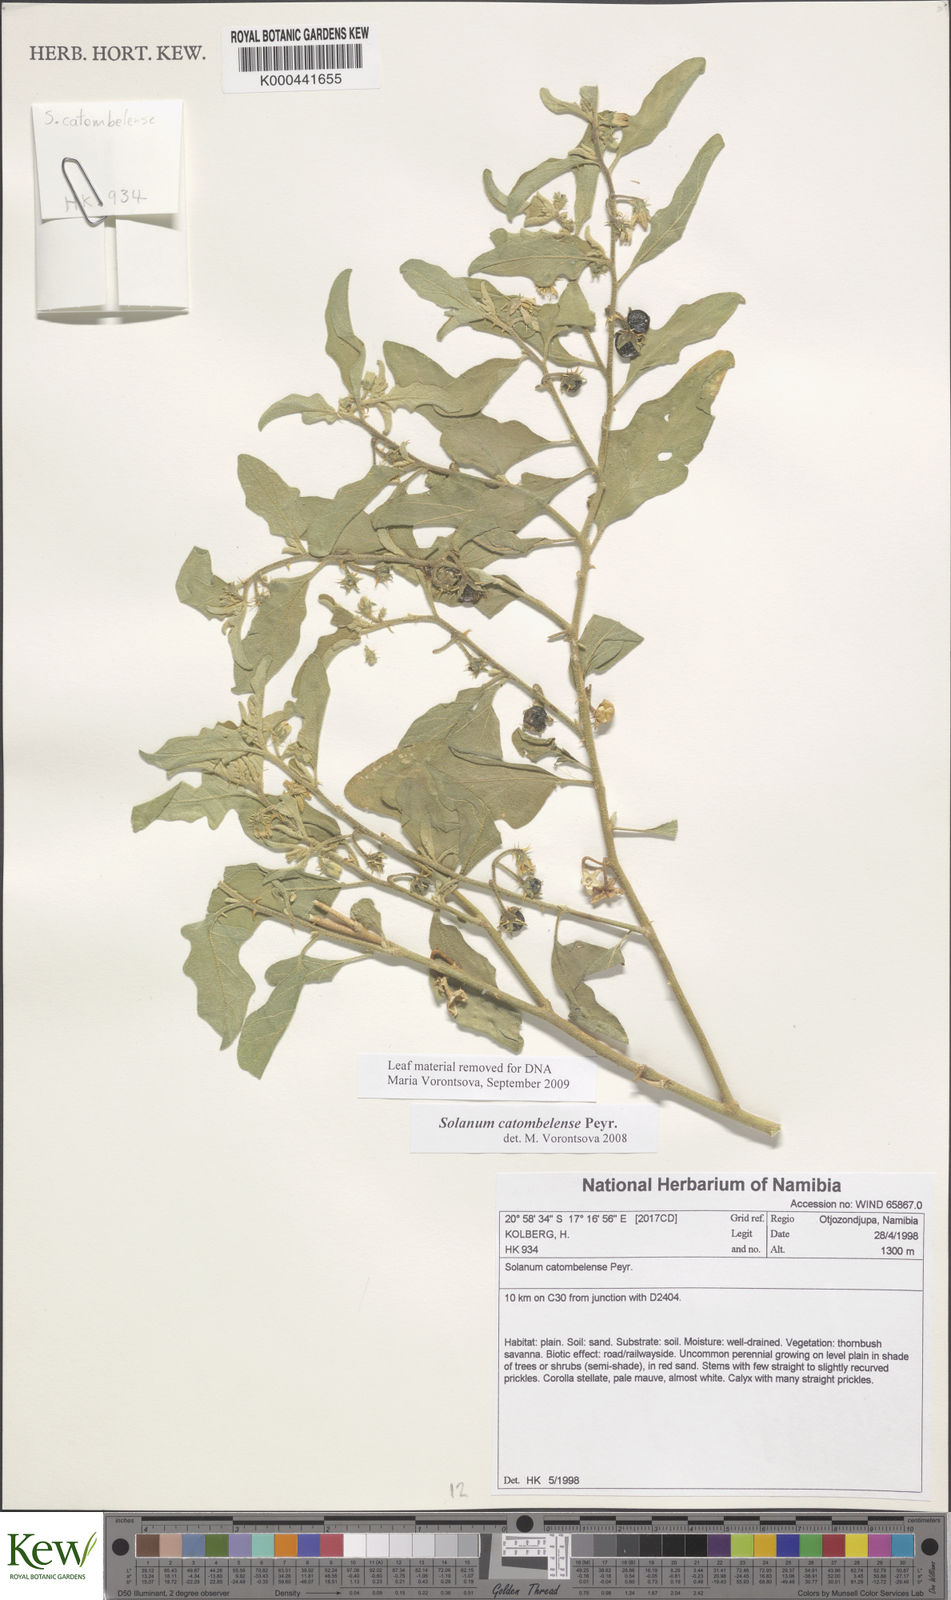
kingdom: Plantae
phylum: Tracheophyta
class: Magnoliopsida
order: Solanales
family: Solanaceae
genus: Solanum
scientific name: Solanum catombelense
